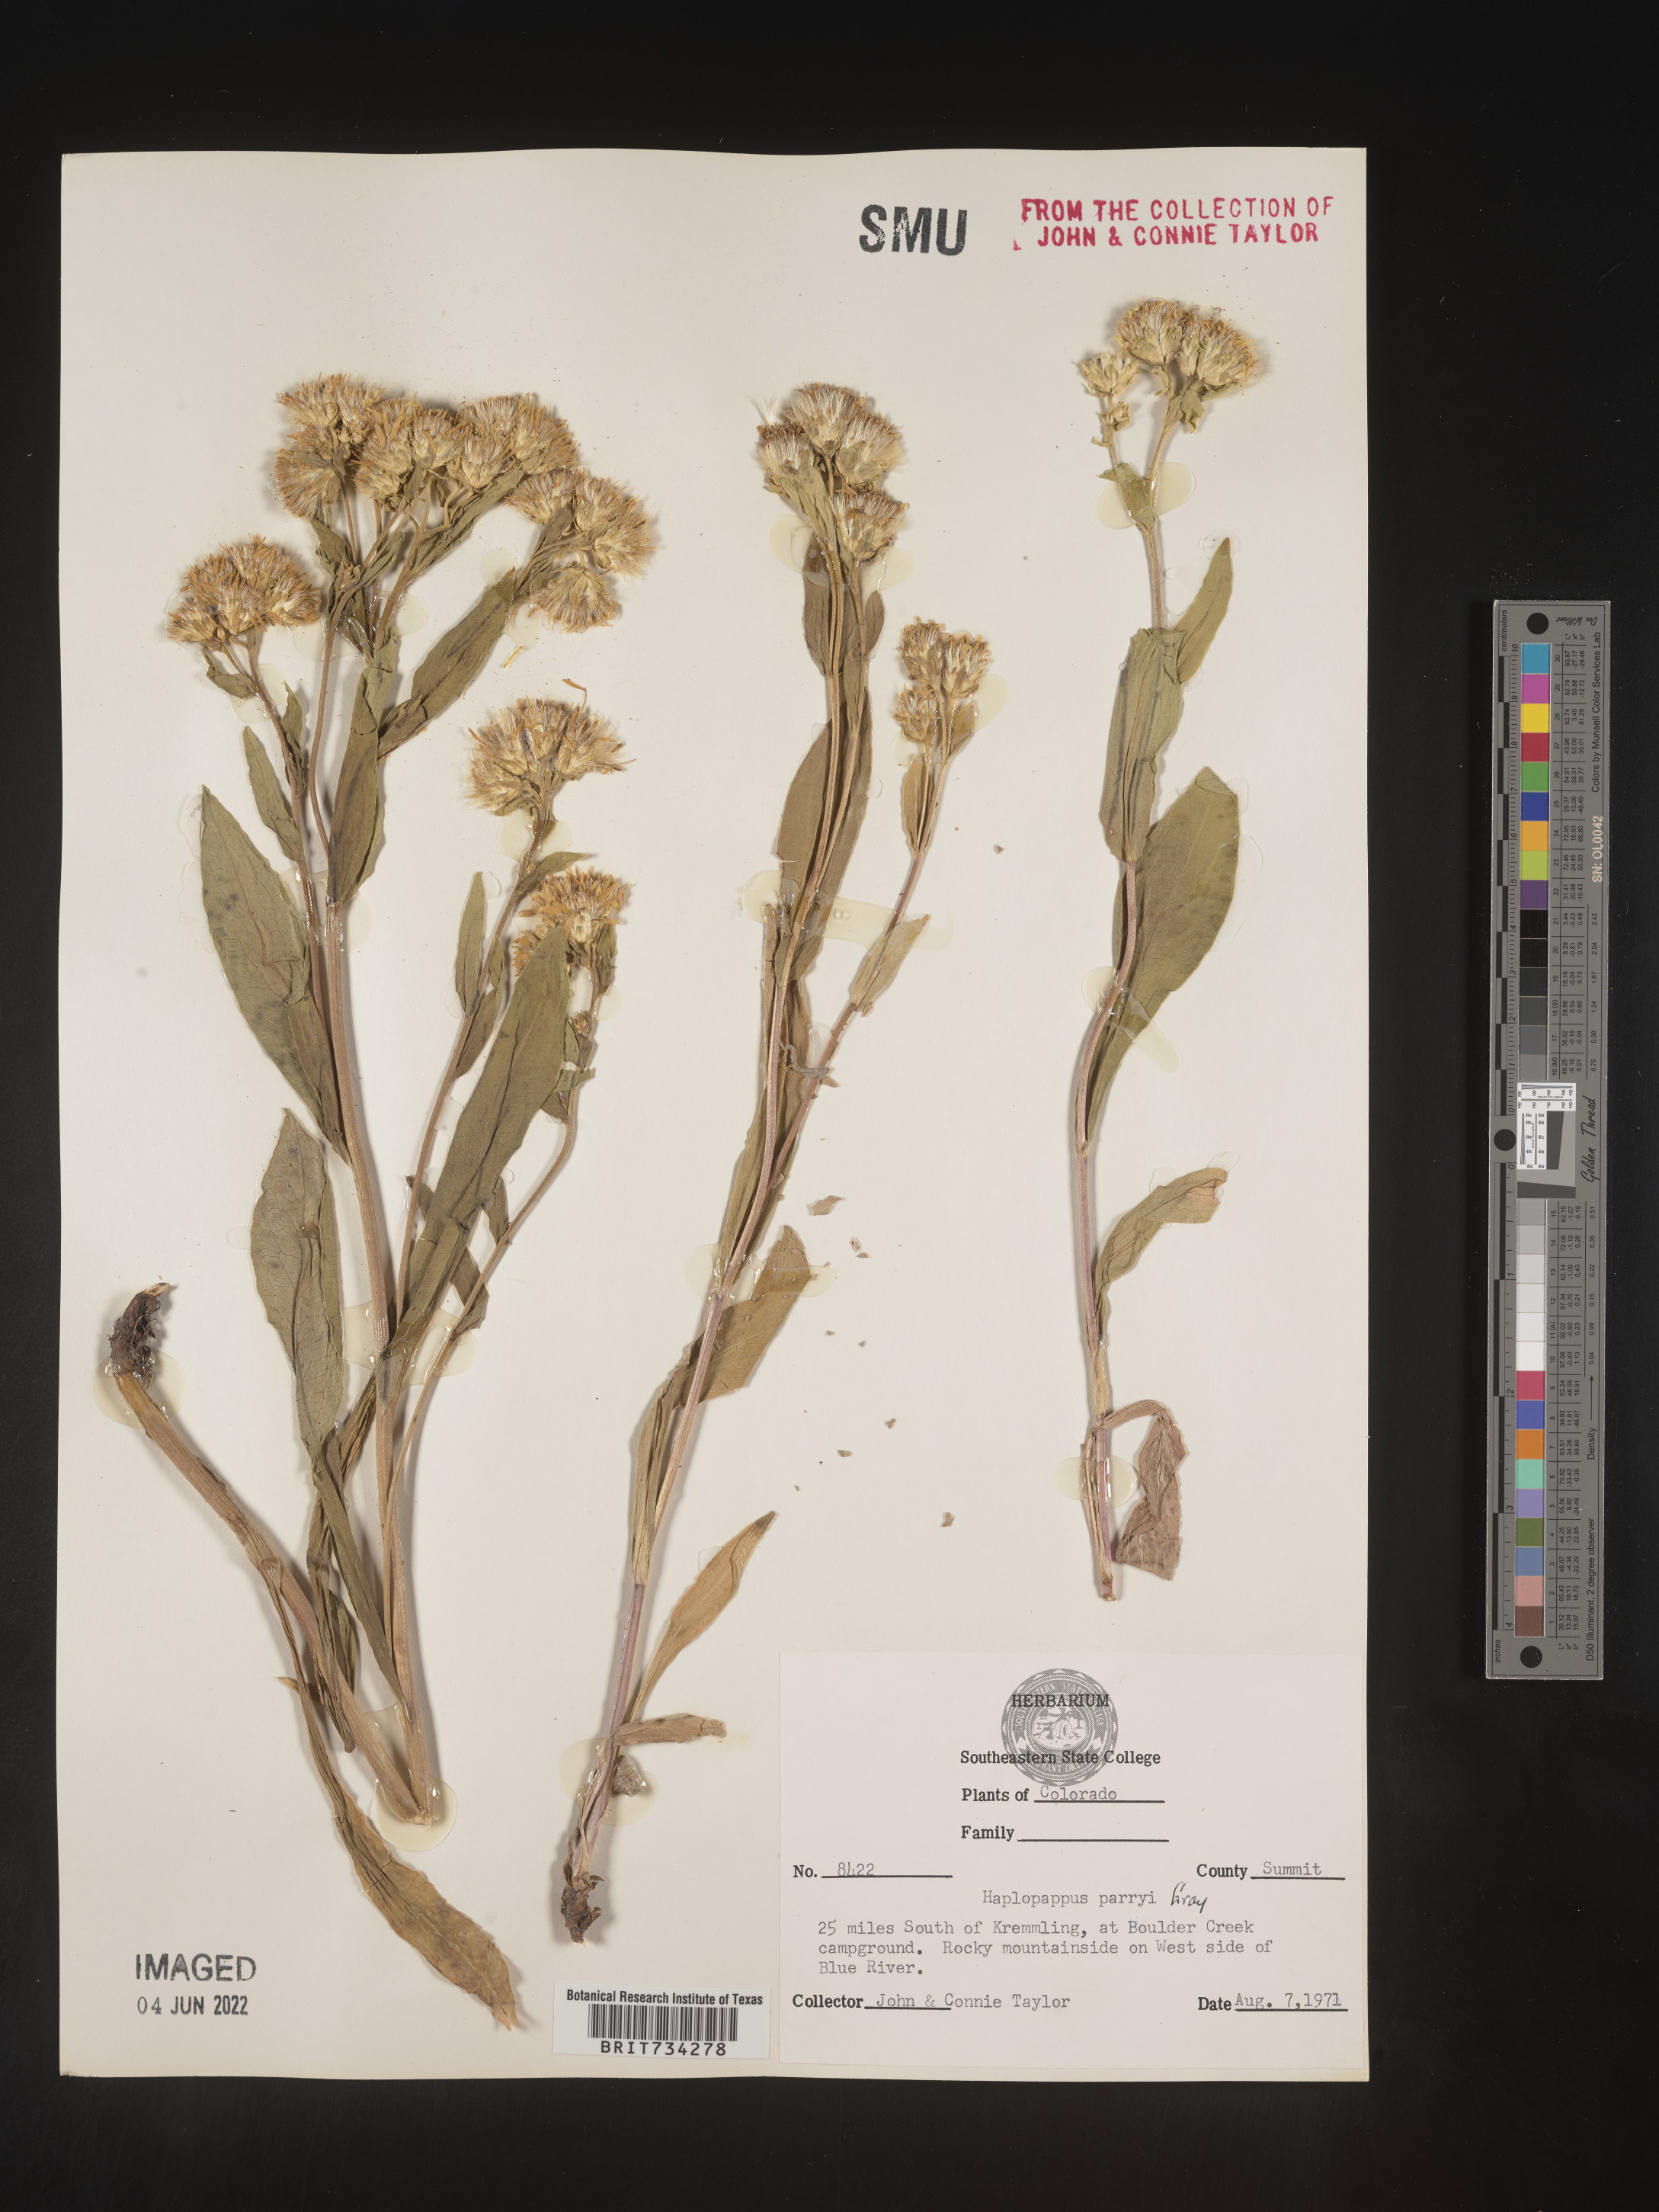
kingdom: Plantae
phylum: Tracheophyta
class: Magnoliopsida
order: Asterales
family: Asteraceae
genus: Oreochrysum
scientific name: Oreochrysum parryi
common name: Parry's goldenweed
